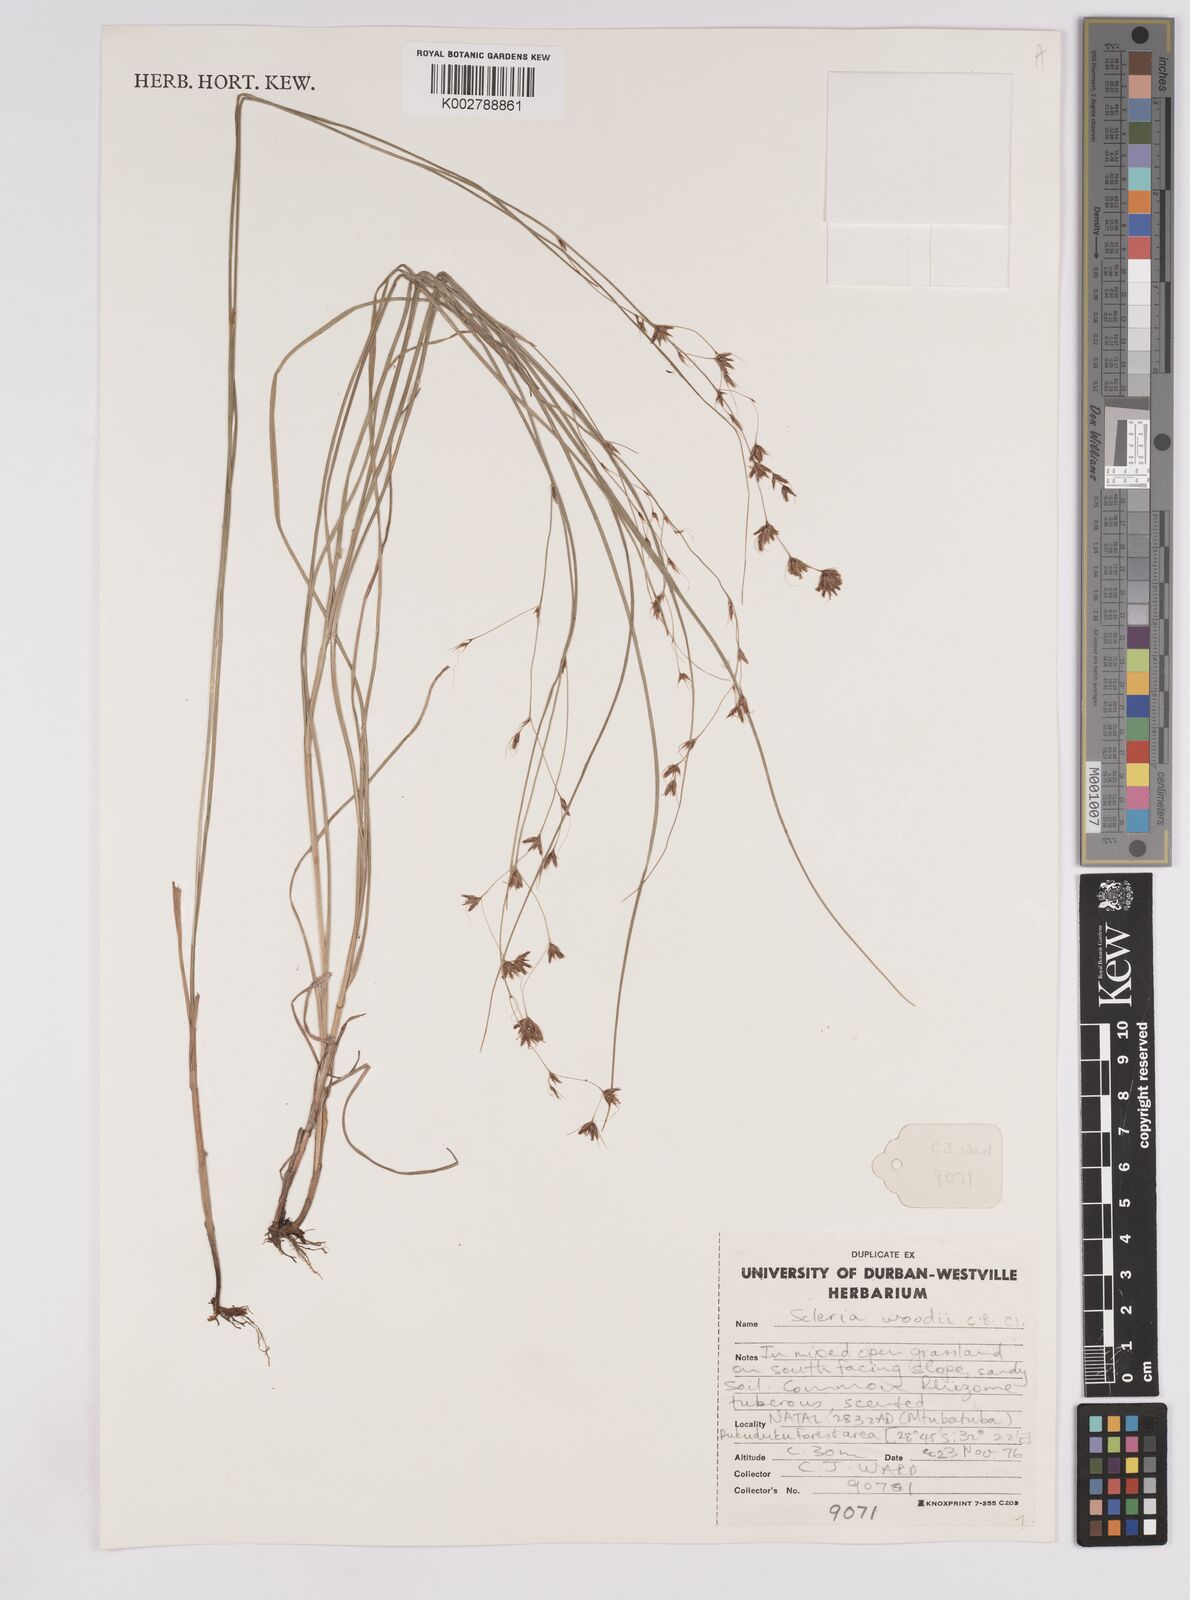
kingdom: Plantae
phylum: Tracheophyta
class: Liliopsida
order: Poales
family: Cyperaceae
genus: Scleria
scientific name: Scleria woodii
